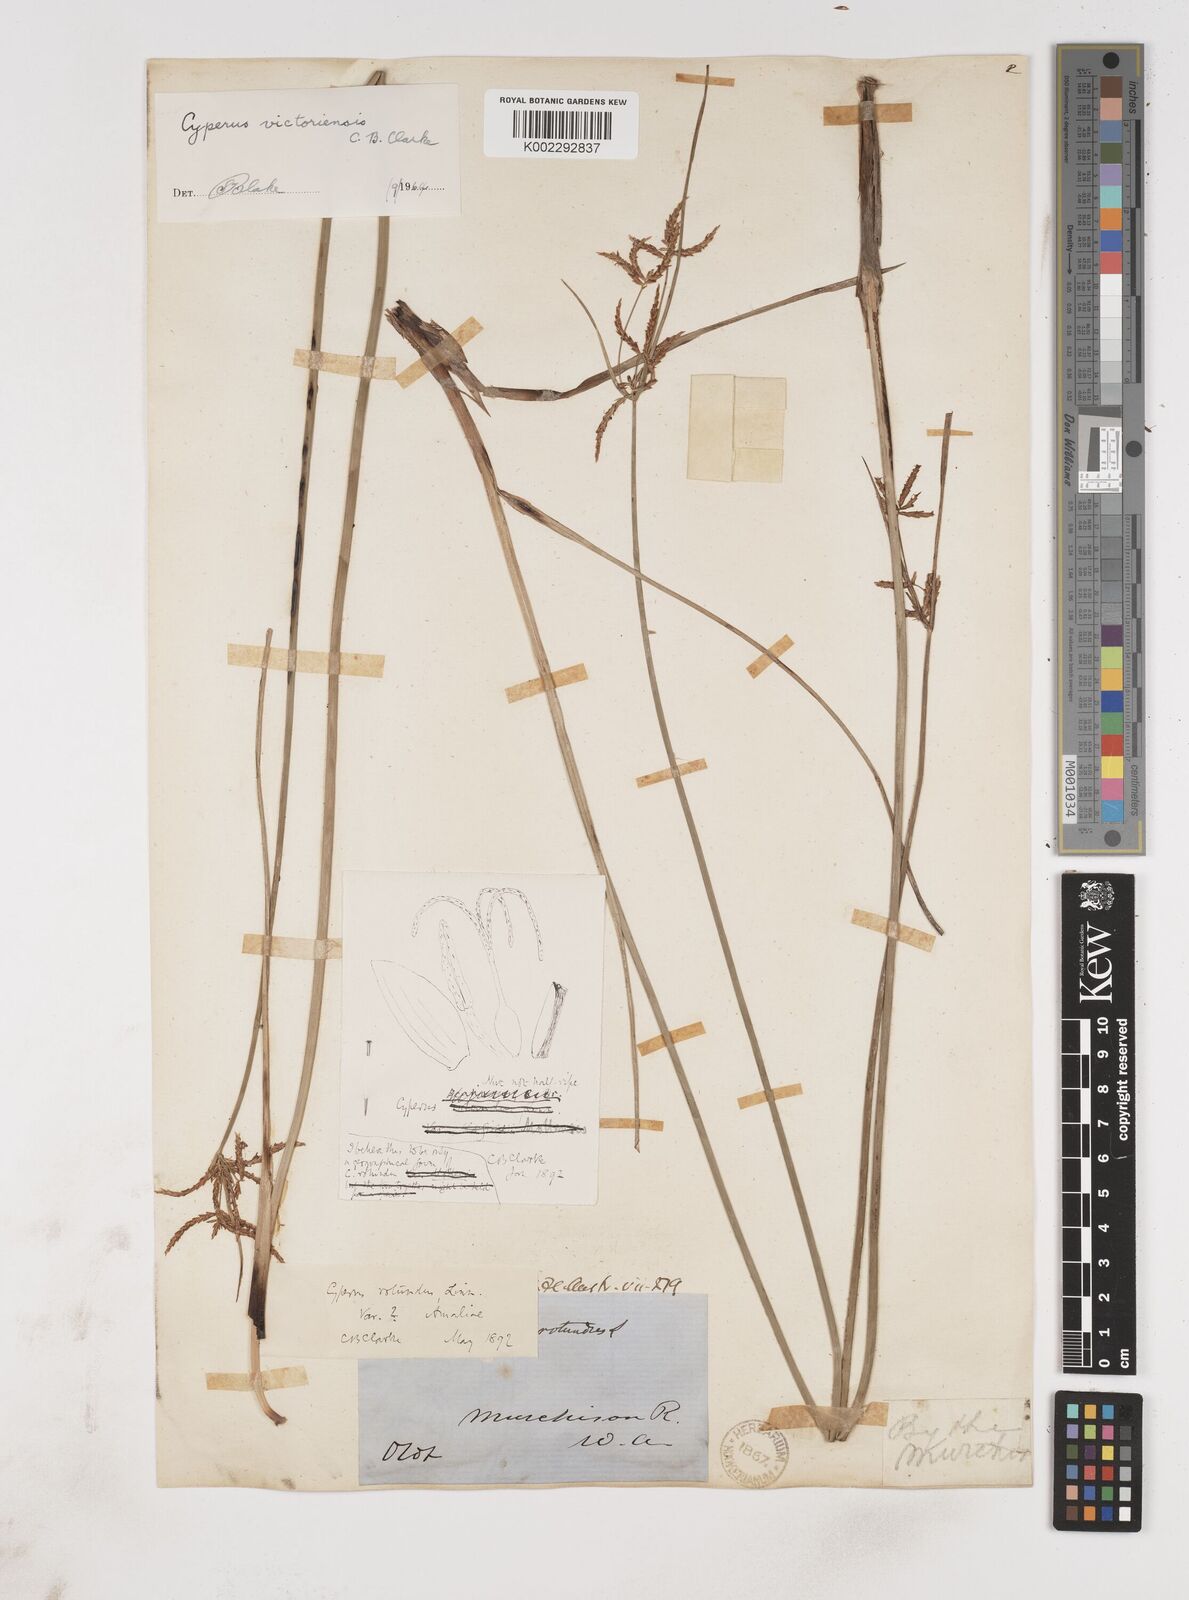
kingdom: Plantae
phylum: Tracheophyta
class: Liliopsida
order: Poales
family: Cyperaceae
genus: Cyperus
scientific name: Cyperus victoriensis
